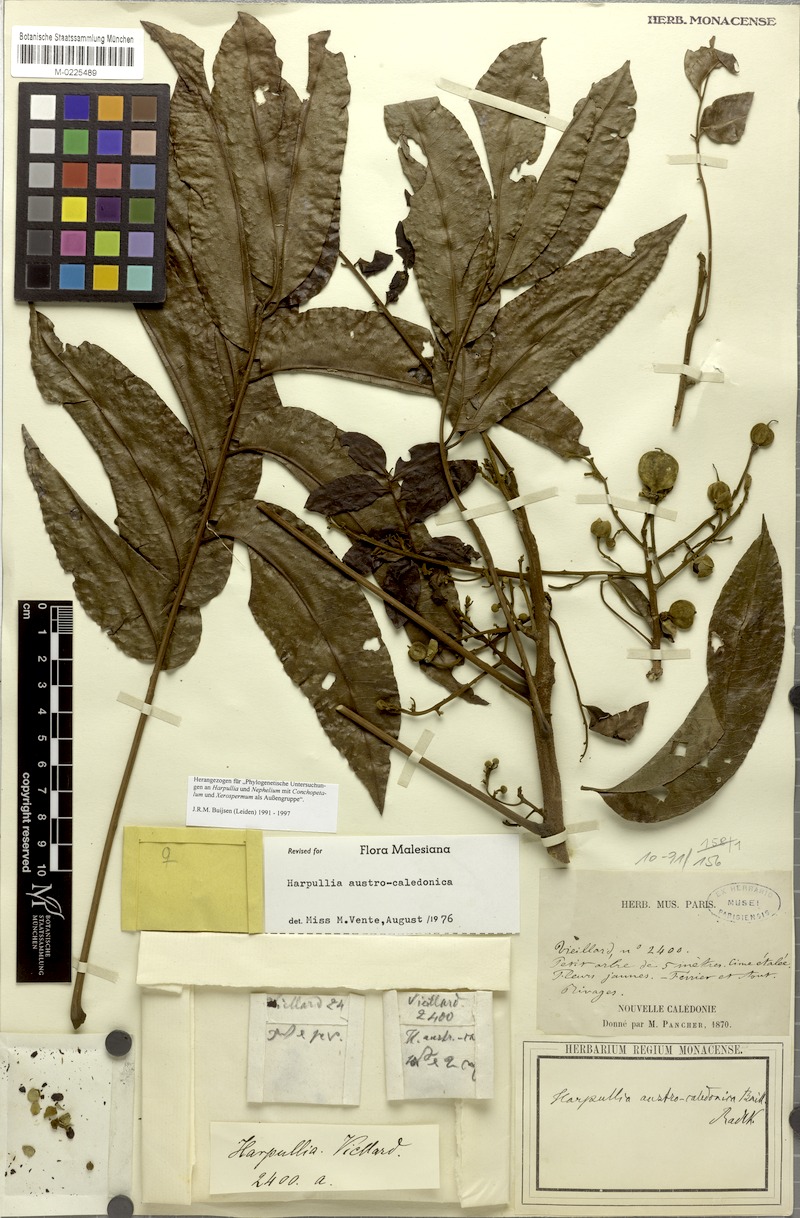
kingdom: Plantae
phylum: Tracheophyta
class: Magnoliopsida
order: Sapindales
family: Sapindaceae
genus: Harpullia
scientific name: Harpullia austrocaledonica
